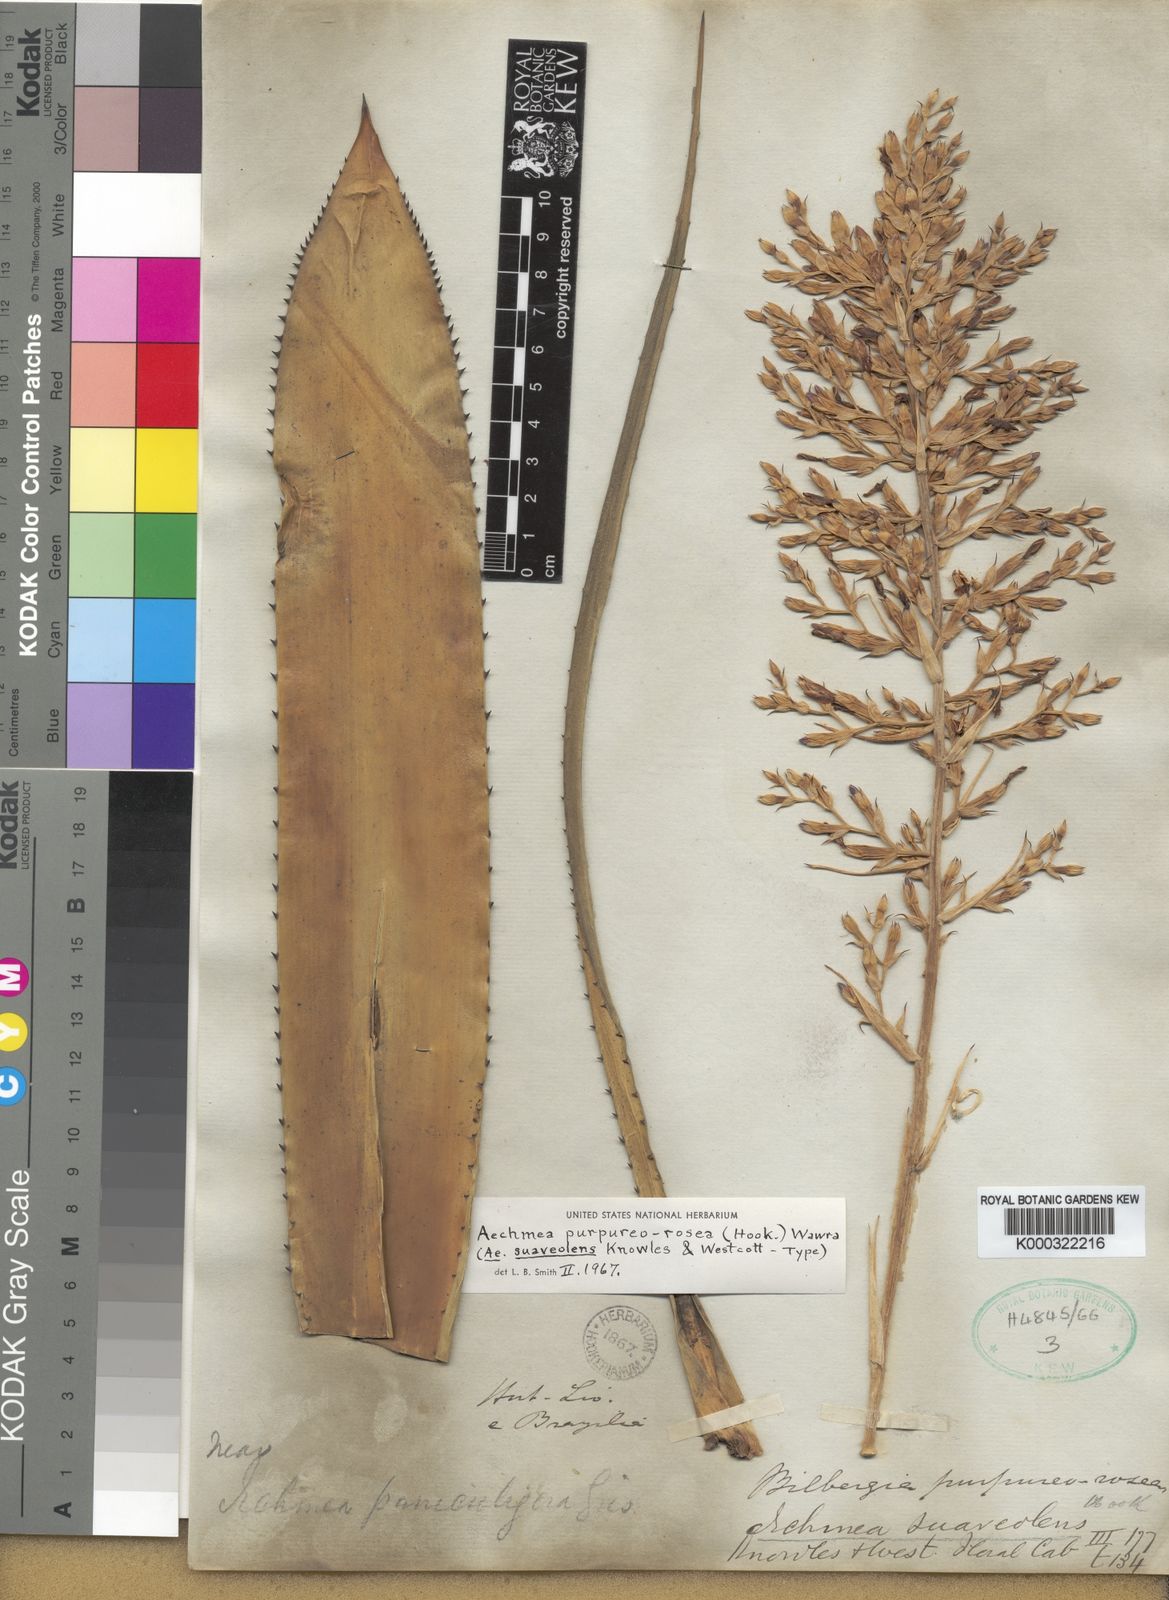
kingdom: Plantae
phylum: Tracheophyta
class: Liliopsida
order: Poales
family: Bromeliaceae
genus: Aechmea
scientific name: Aechmea purpureorosea
